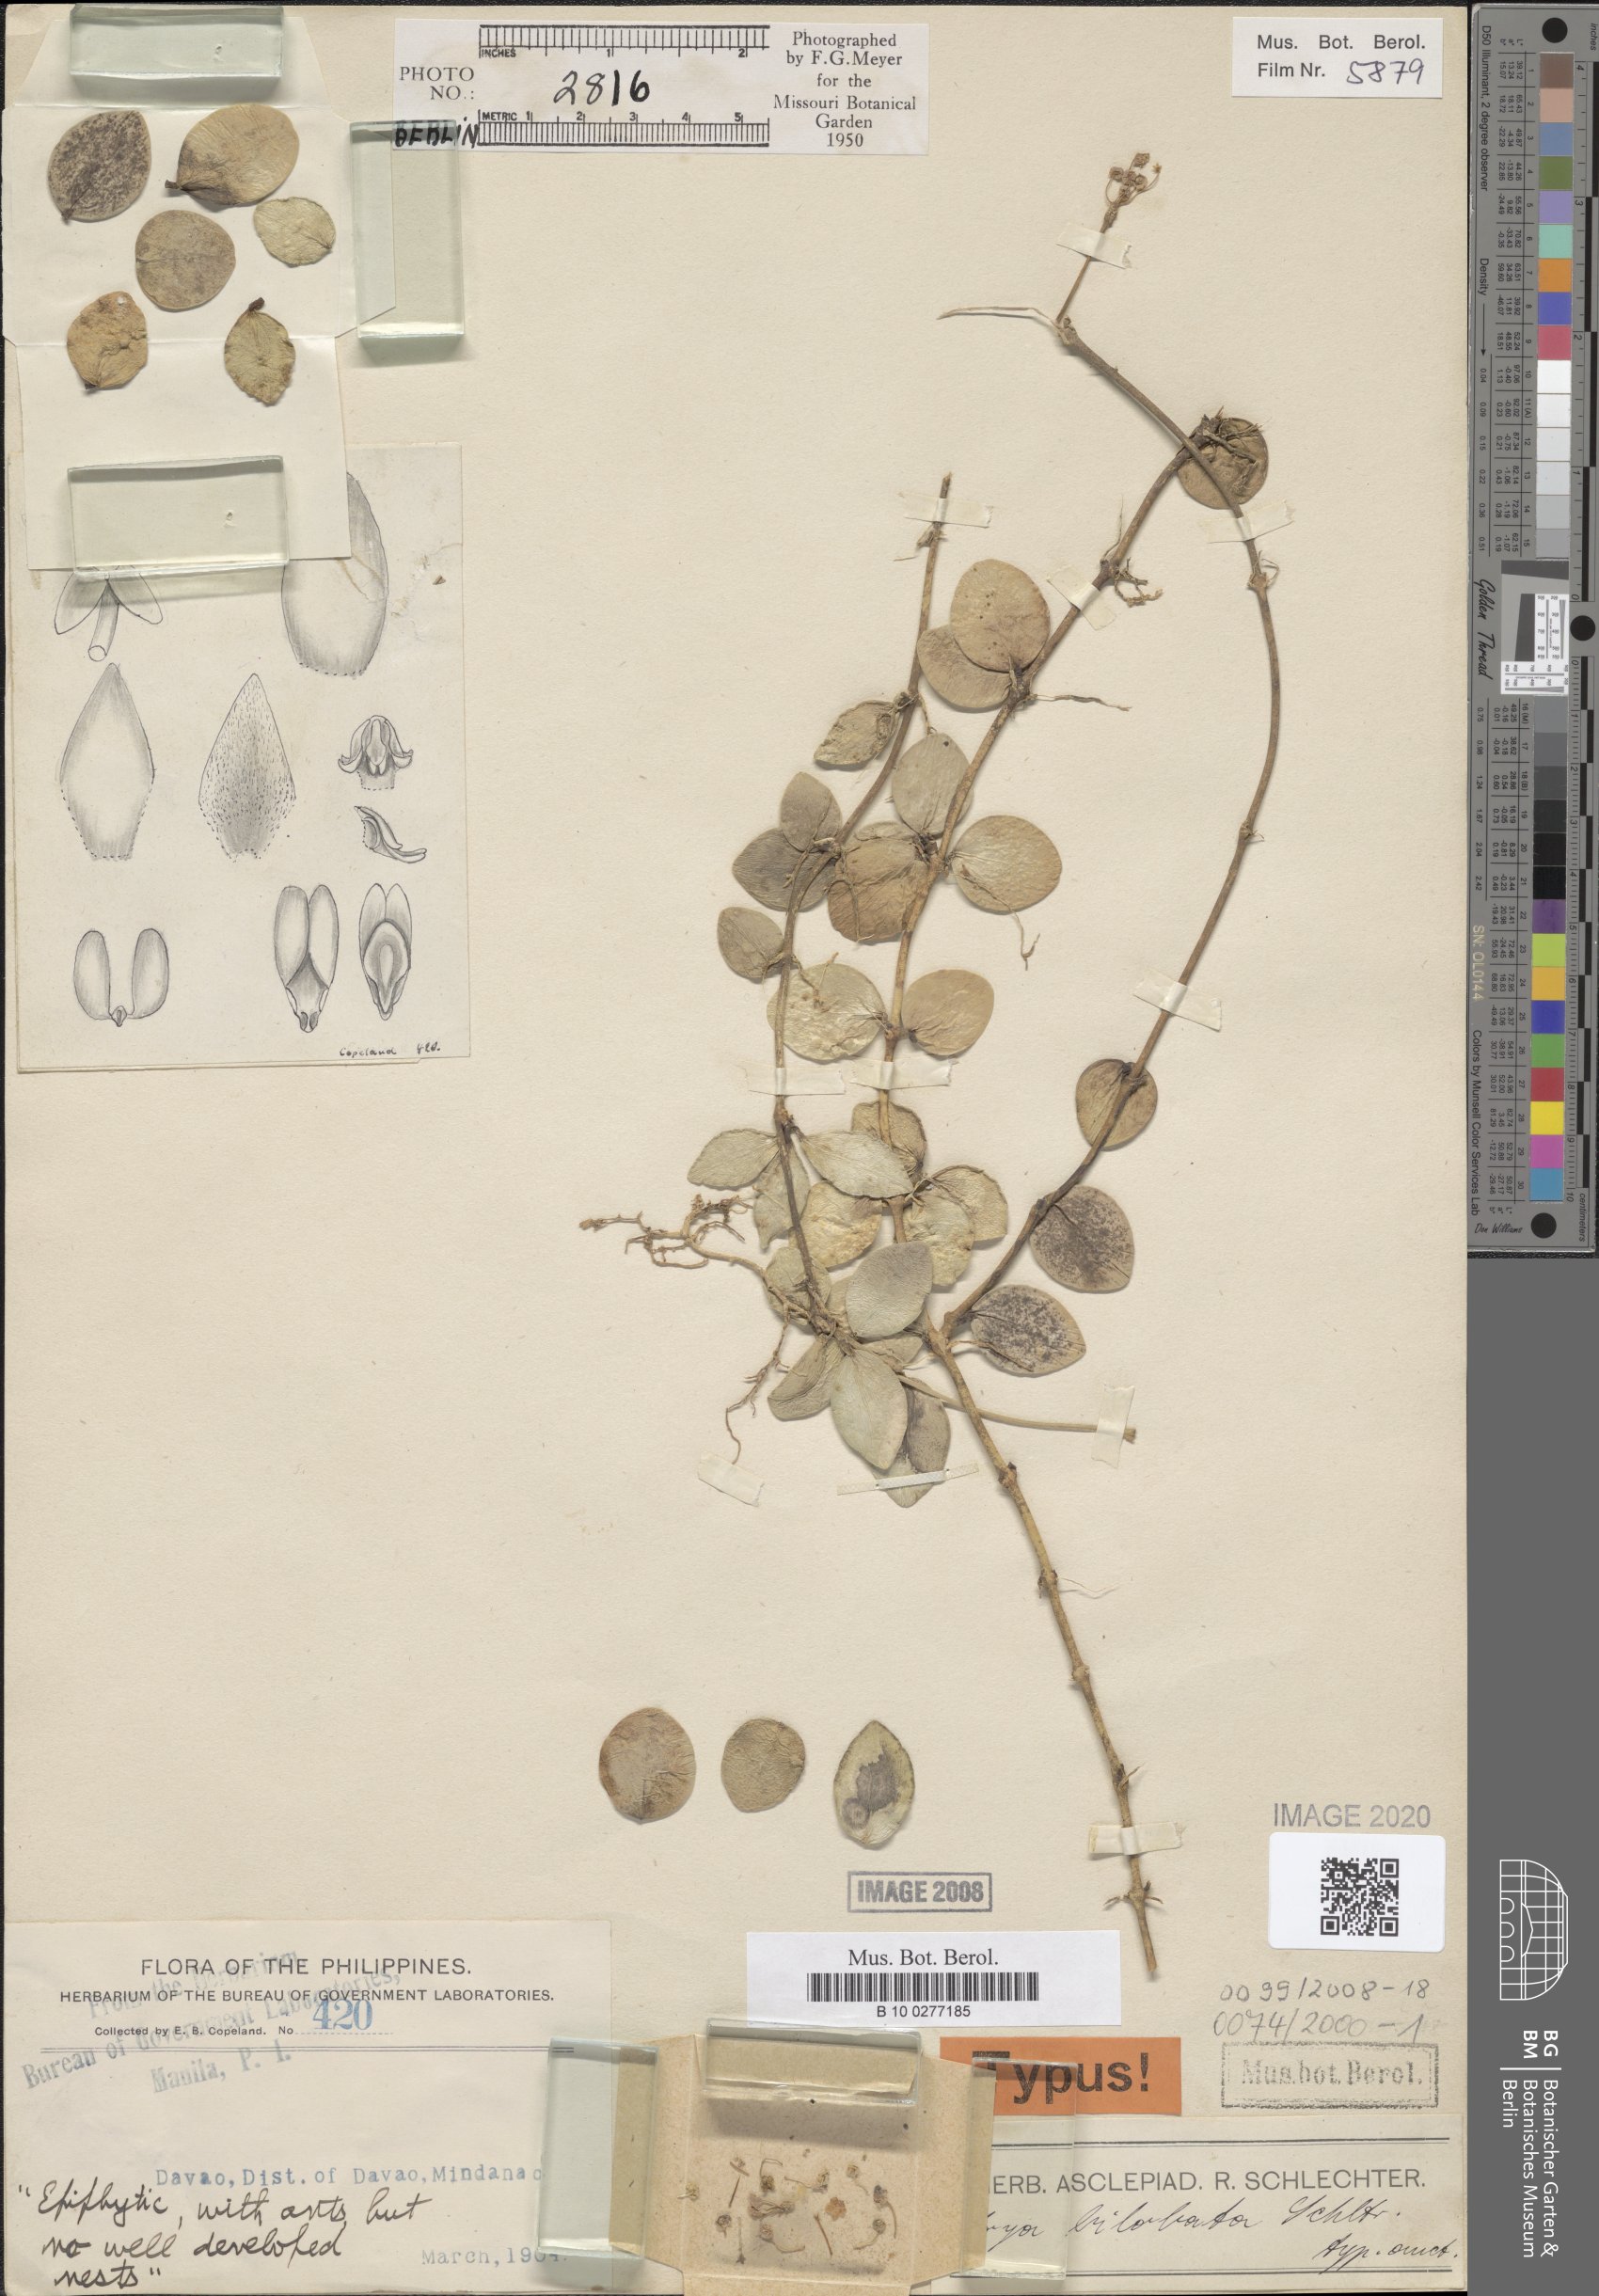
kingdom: Plantae
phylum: Tracheophyta
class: Magnoliopsida
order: Gentianales
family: Apocynaceae
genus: Hoya
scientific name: Hoya bilobata
